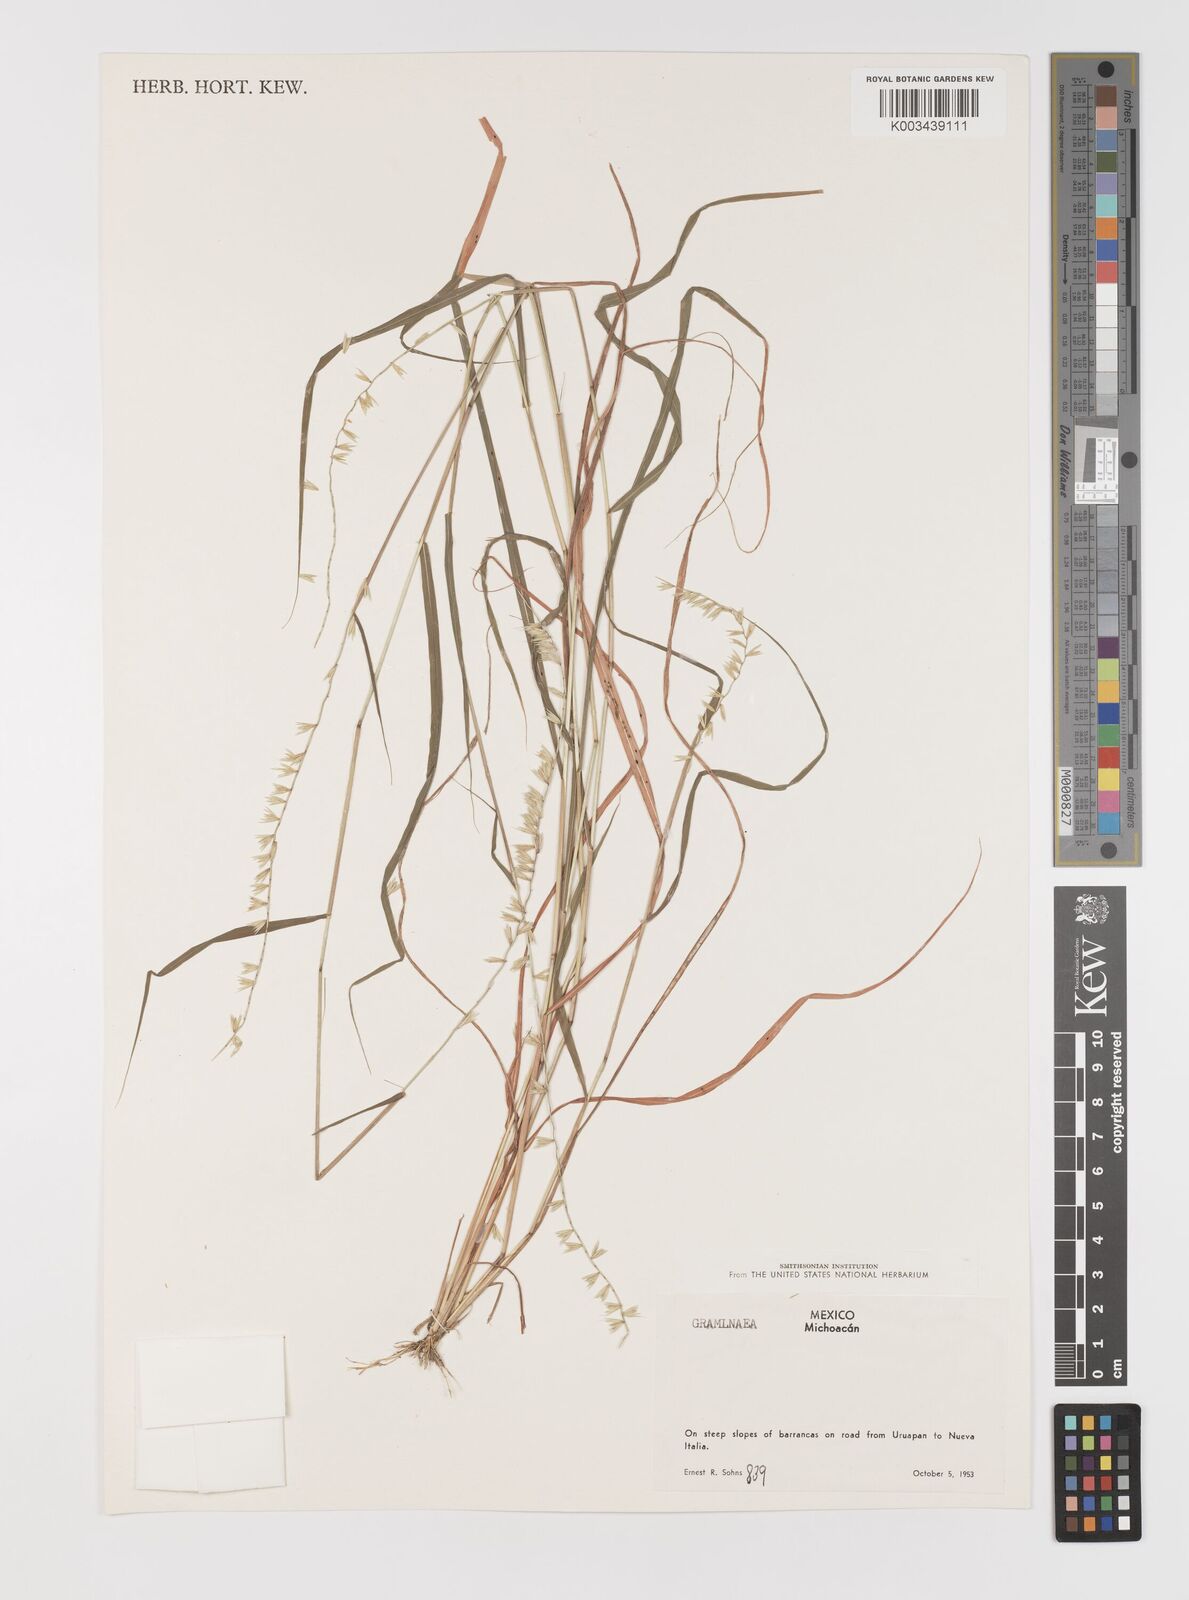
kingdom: Plantae
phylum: Tracheophyta
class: Liliopsida
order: Poales
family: Poaceae
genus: Bouteloua
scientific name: Bouteloua disticha
